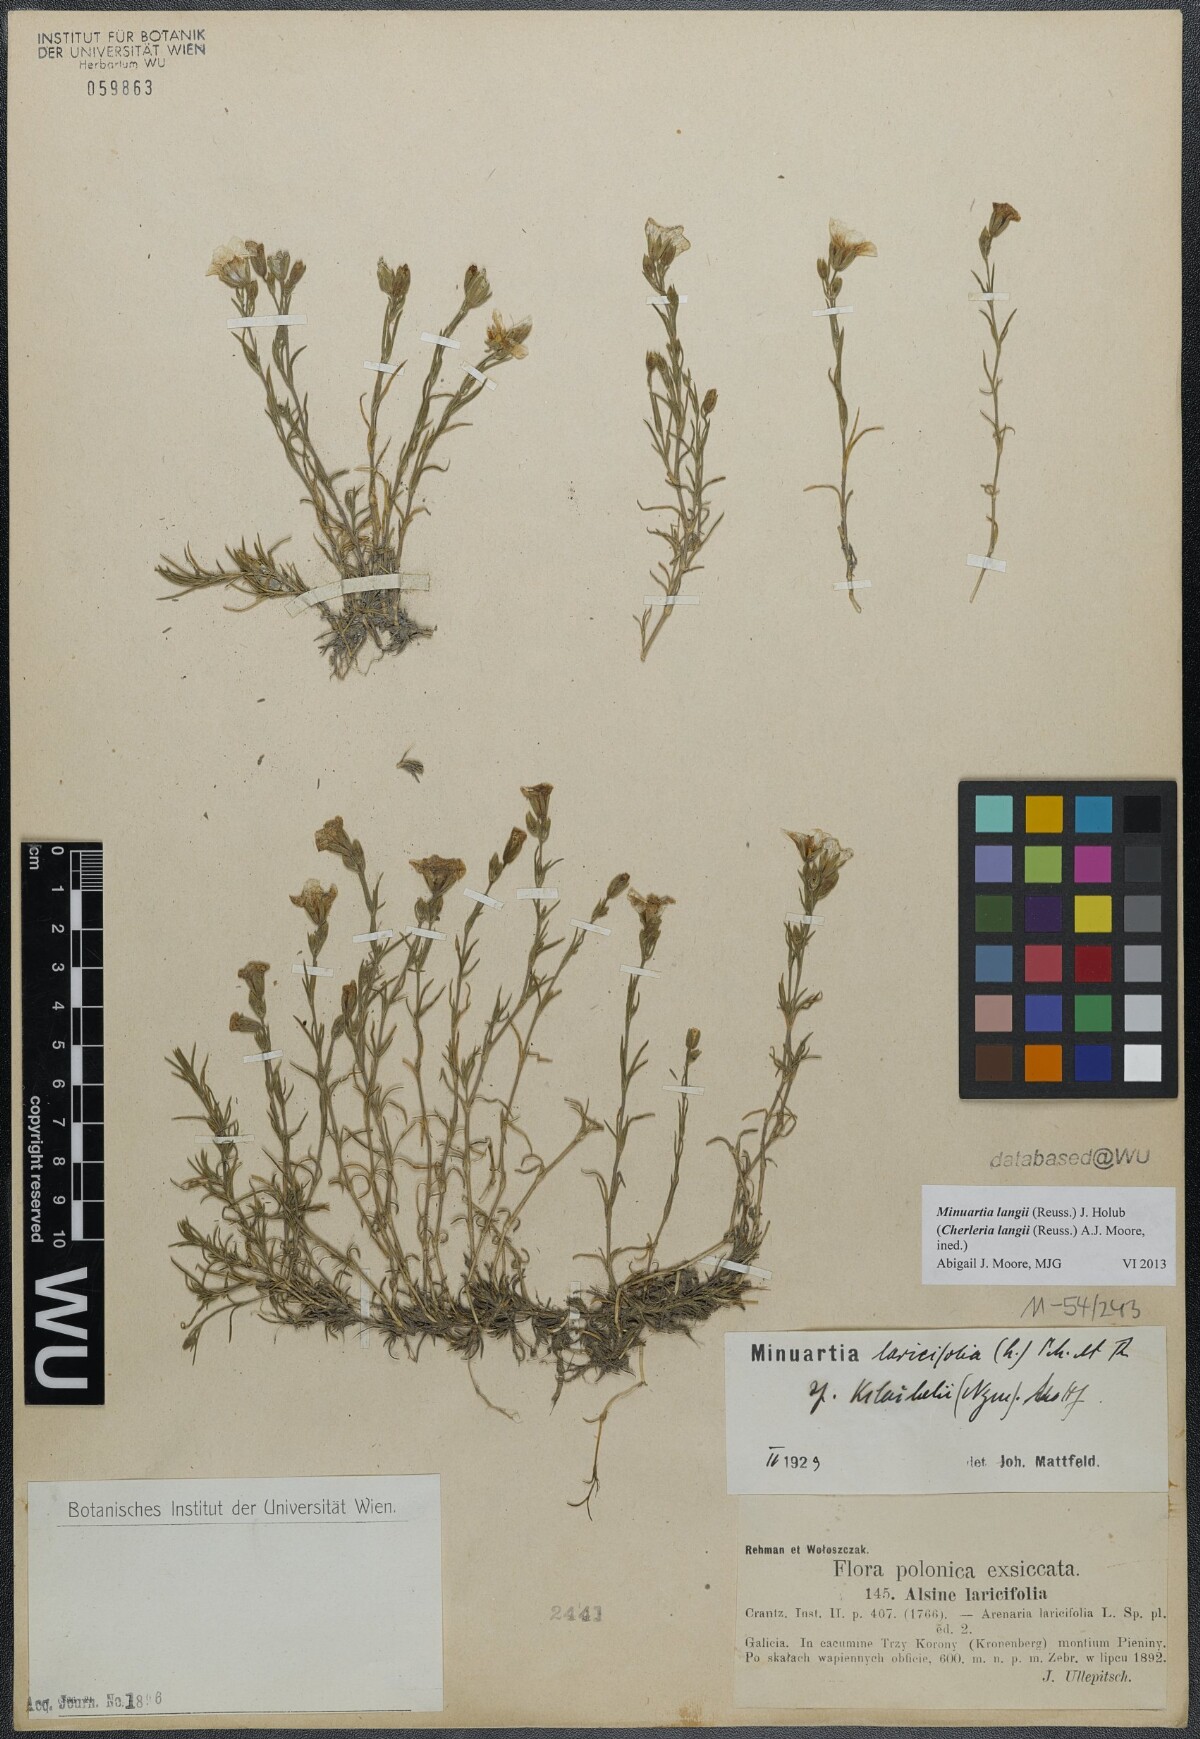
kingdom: Plantae
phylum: Tracheophyta
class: Magnoliopsida
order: Caryophyllales
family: Caryophyllaceae
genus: Cherleria
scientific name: Cherleria langii
